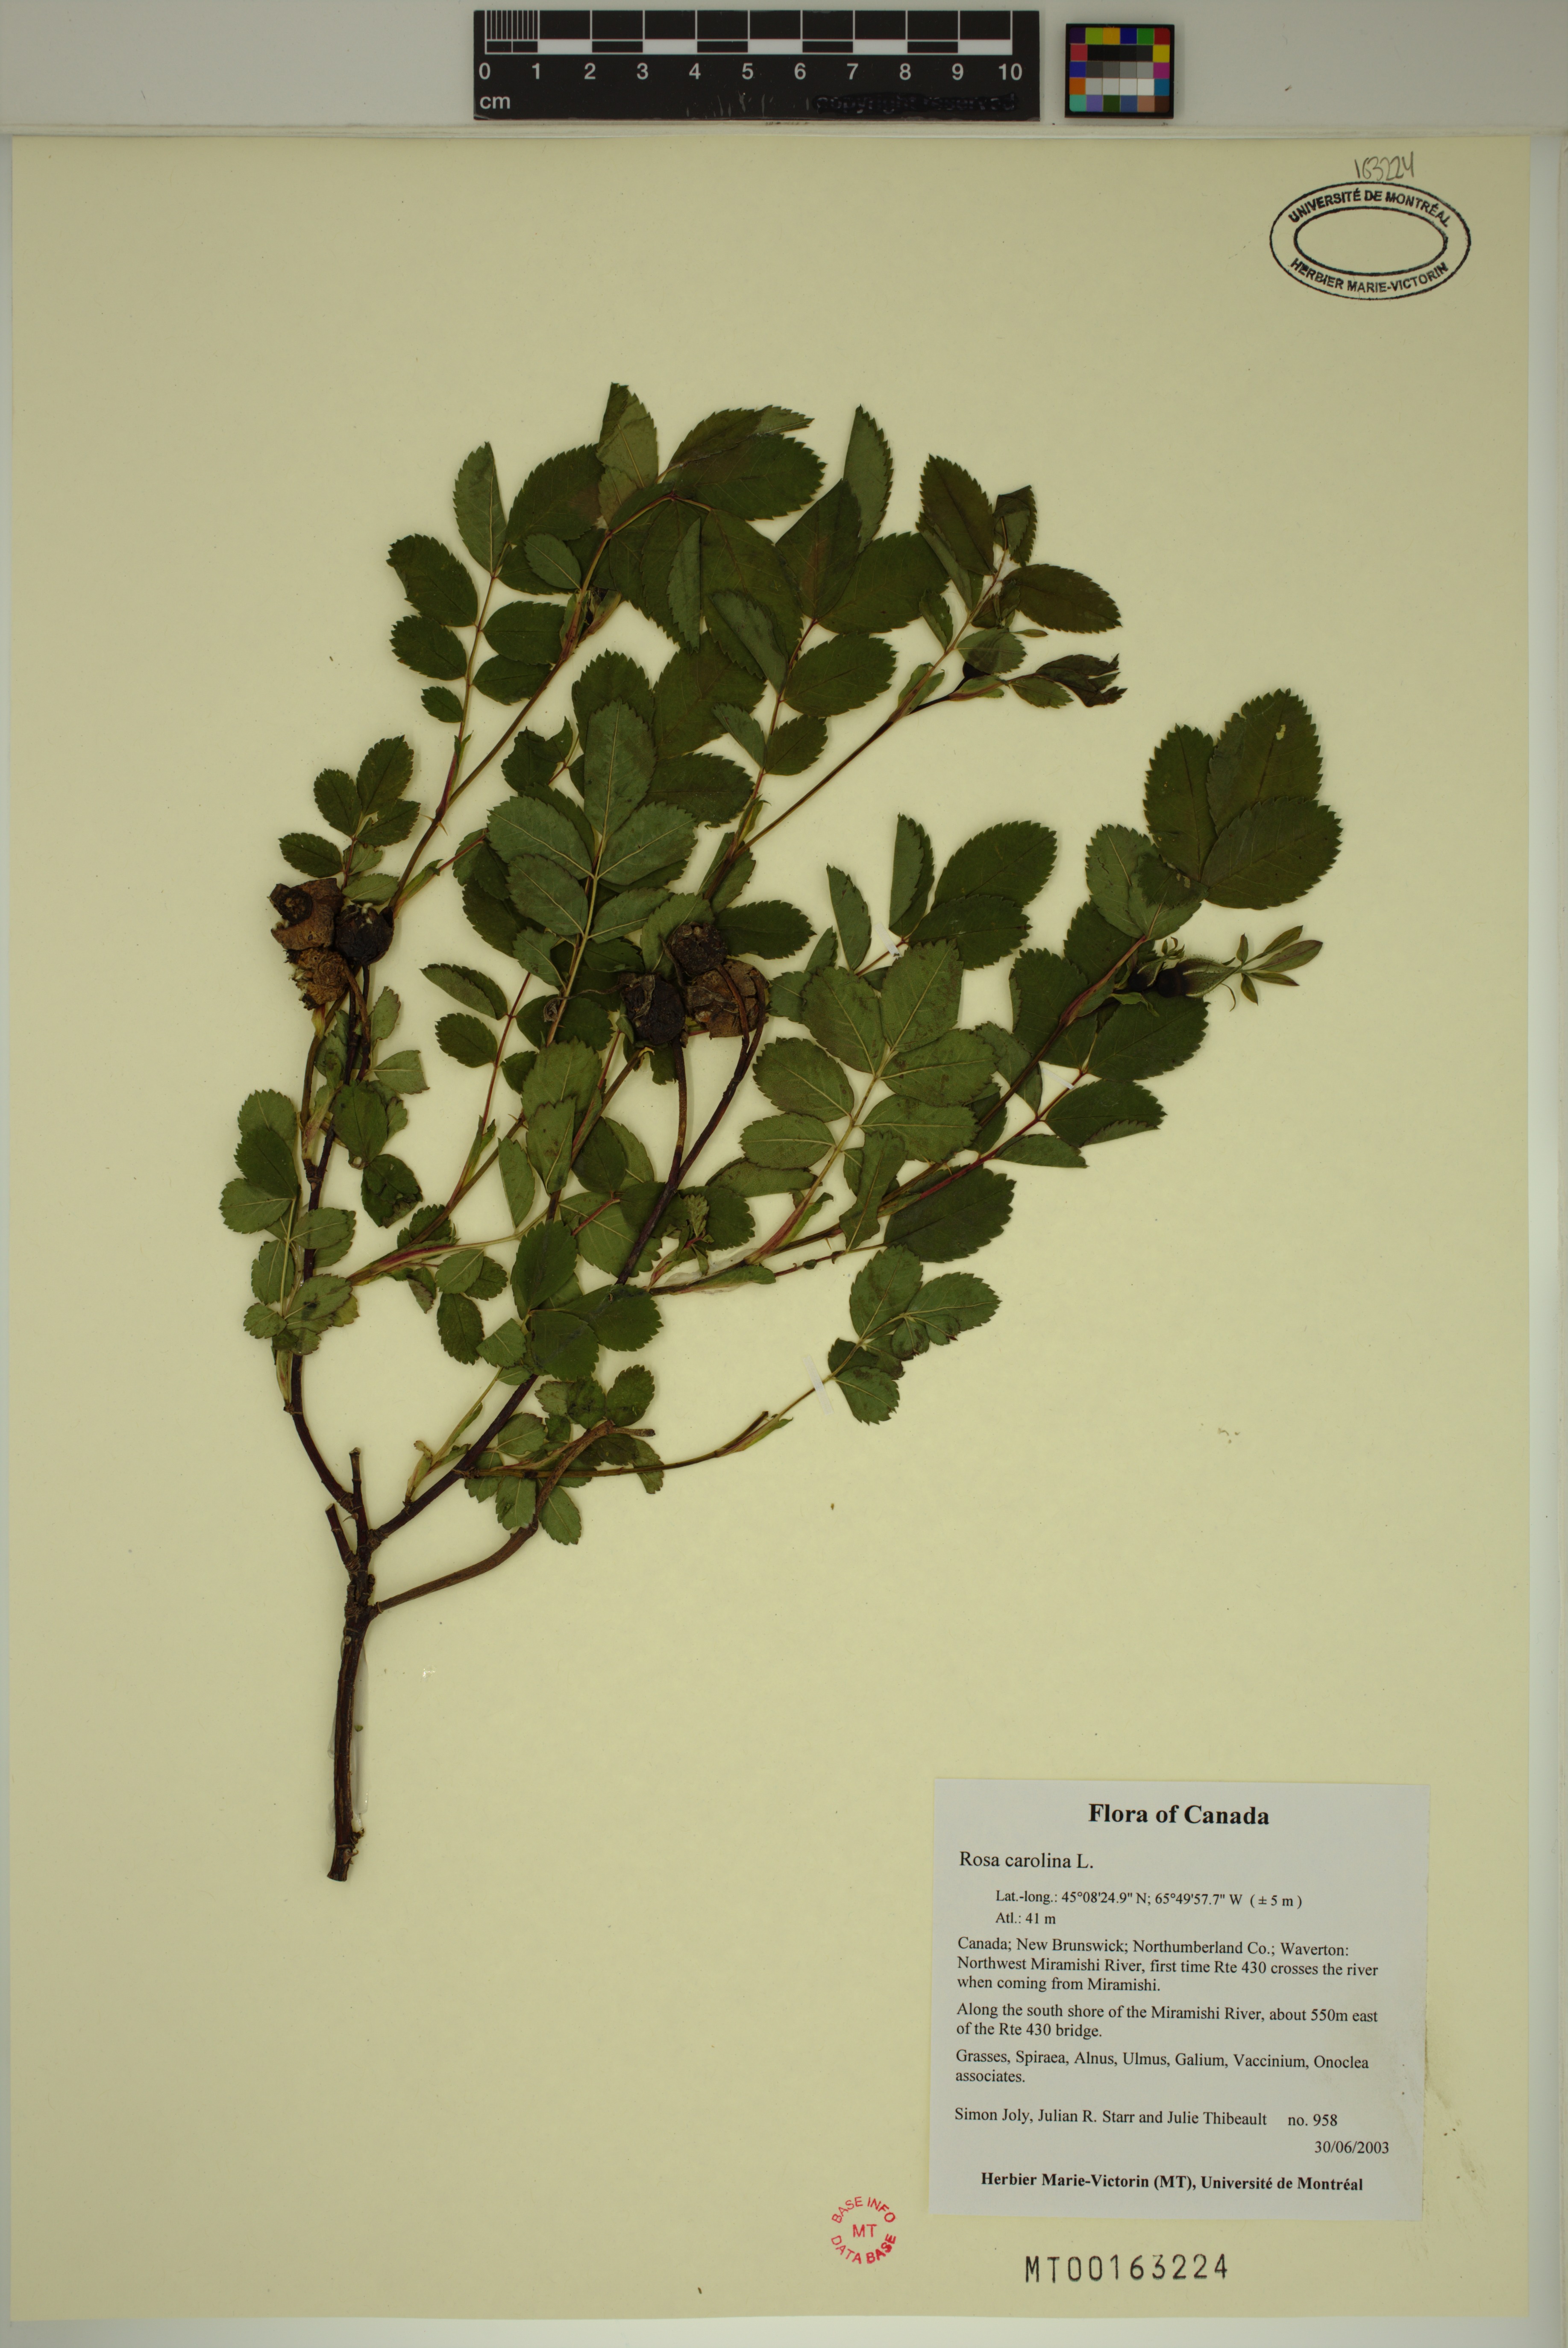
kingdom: Plantae
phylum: Tracheophyta
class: Magnoliopsida
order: Rosales
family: Rosaceae
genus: Rosa
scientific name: Rosa carolina
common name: Pasture rose
